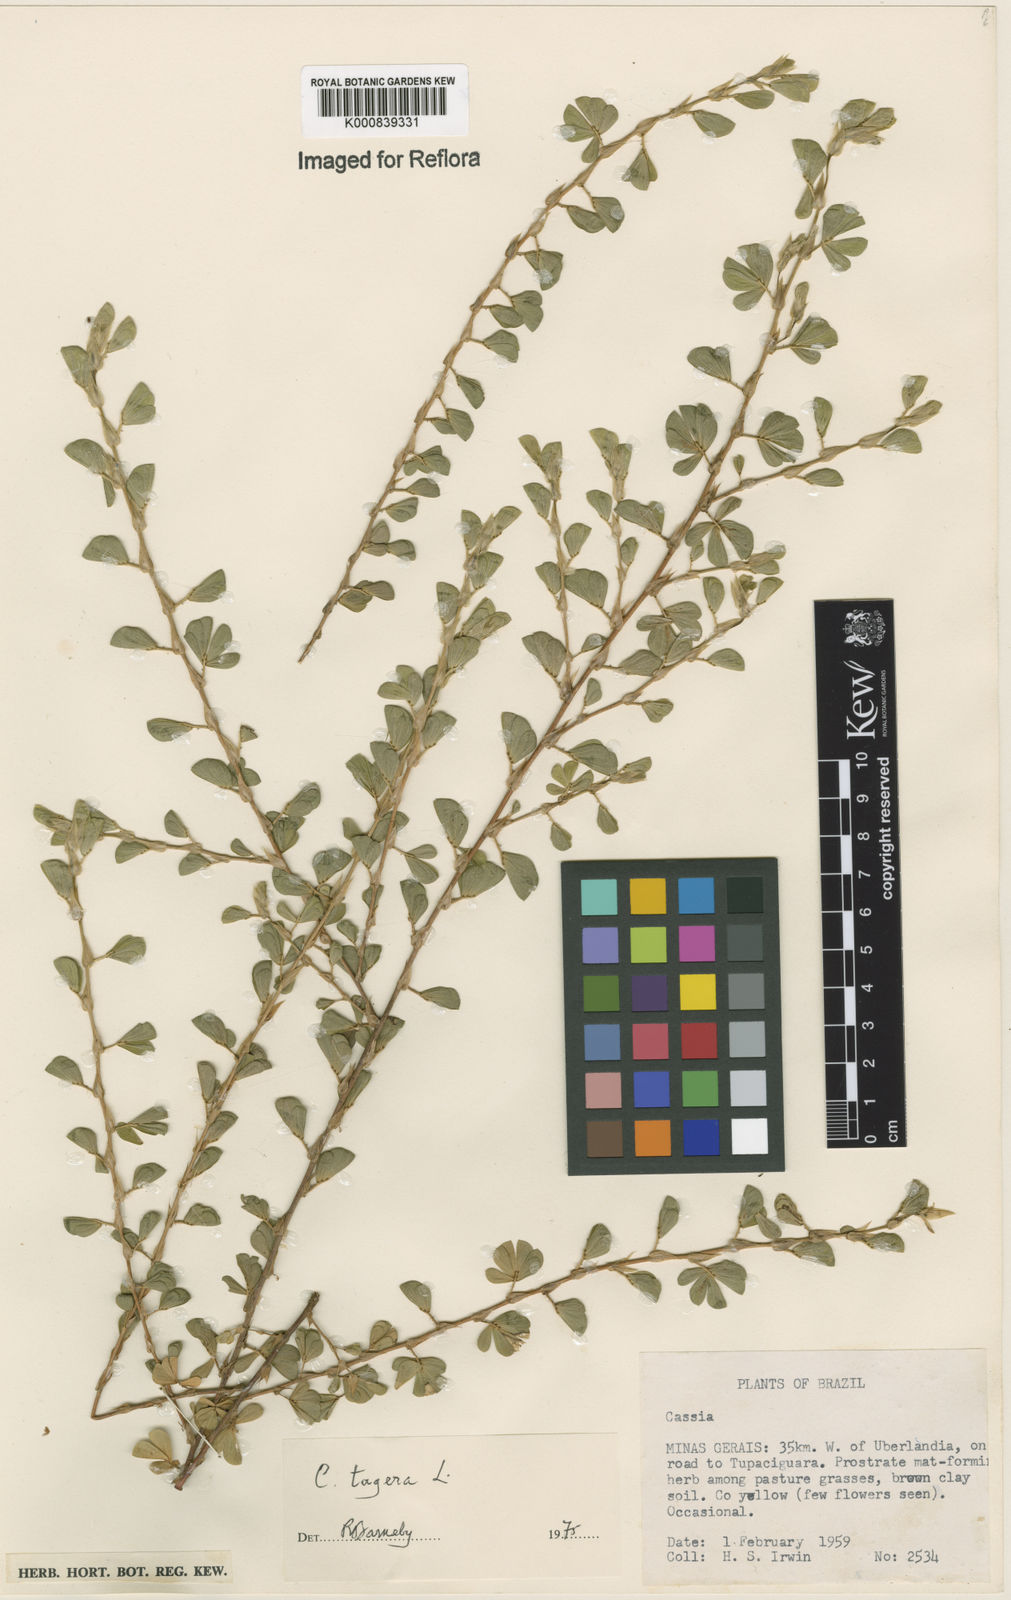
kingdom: Plantae
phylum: Tracheophyta
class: Magnoliopsida
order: Fabales
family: Fabaceae
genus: Chamaecrista
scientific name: Chamaecrista kunthiana
